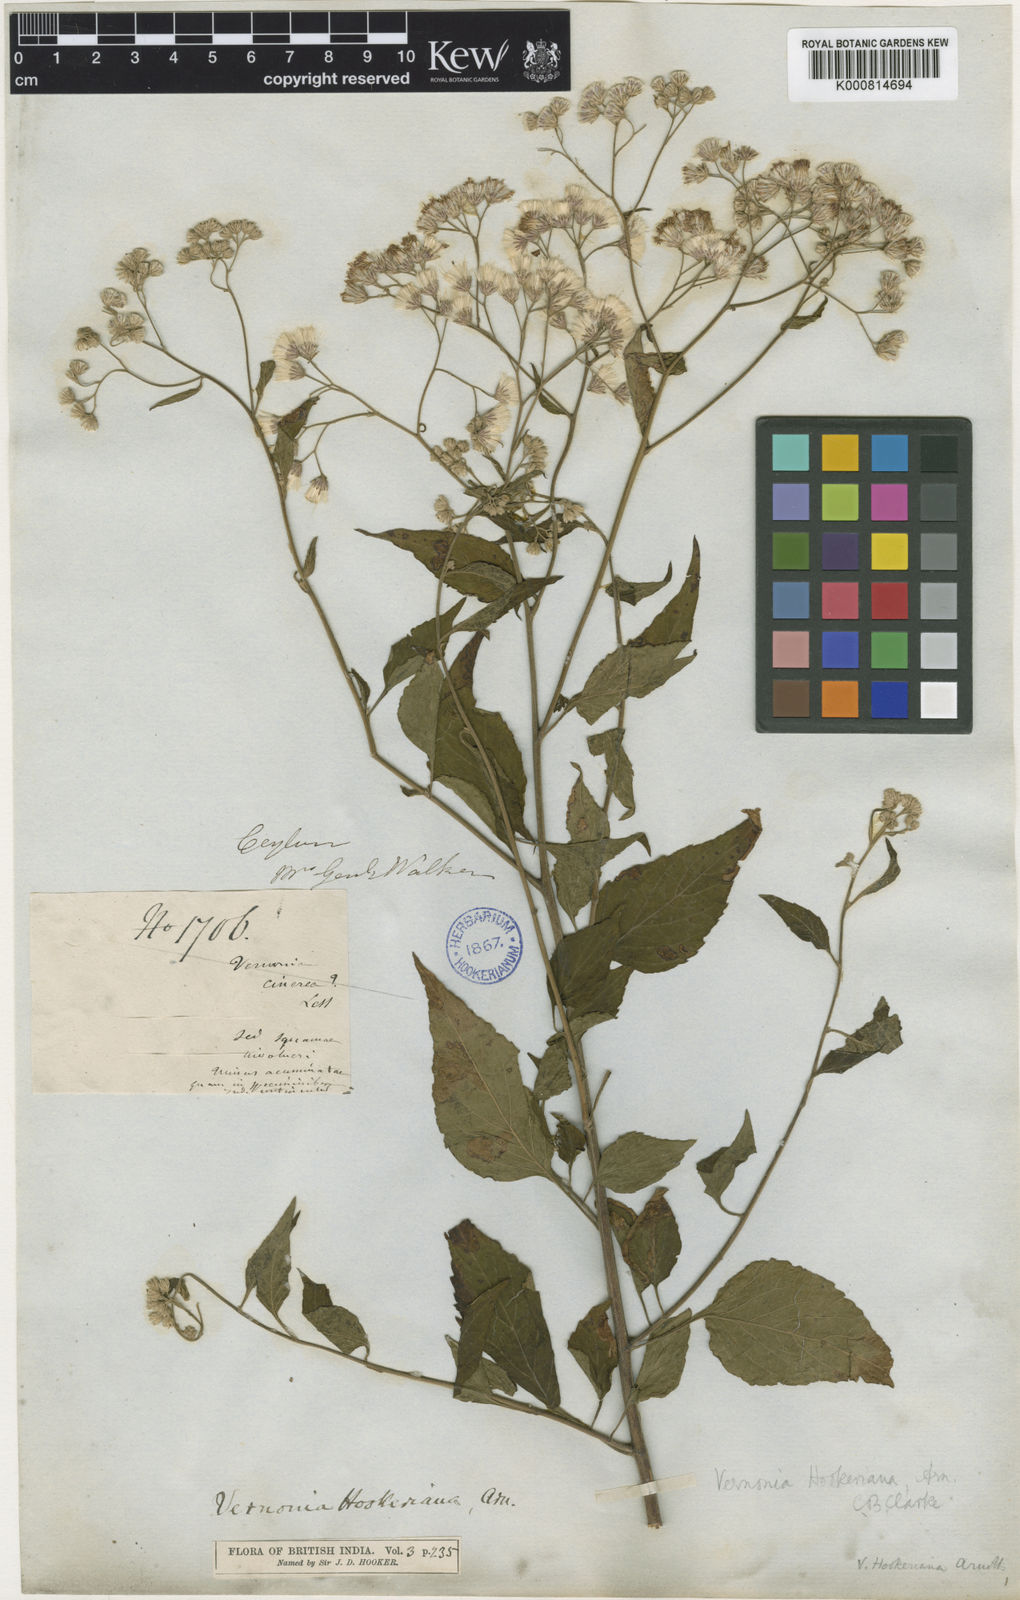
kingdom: Plantae
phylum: Tracheophyta
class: Magnoliopsida
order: Asterales
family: Asteraceae
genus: Cyanthillium
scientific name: Cyanthillium hookerianum
